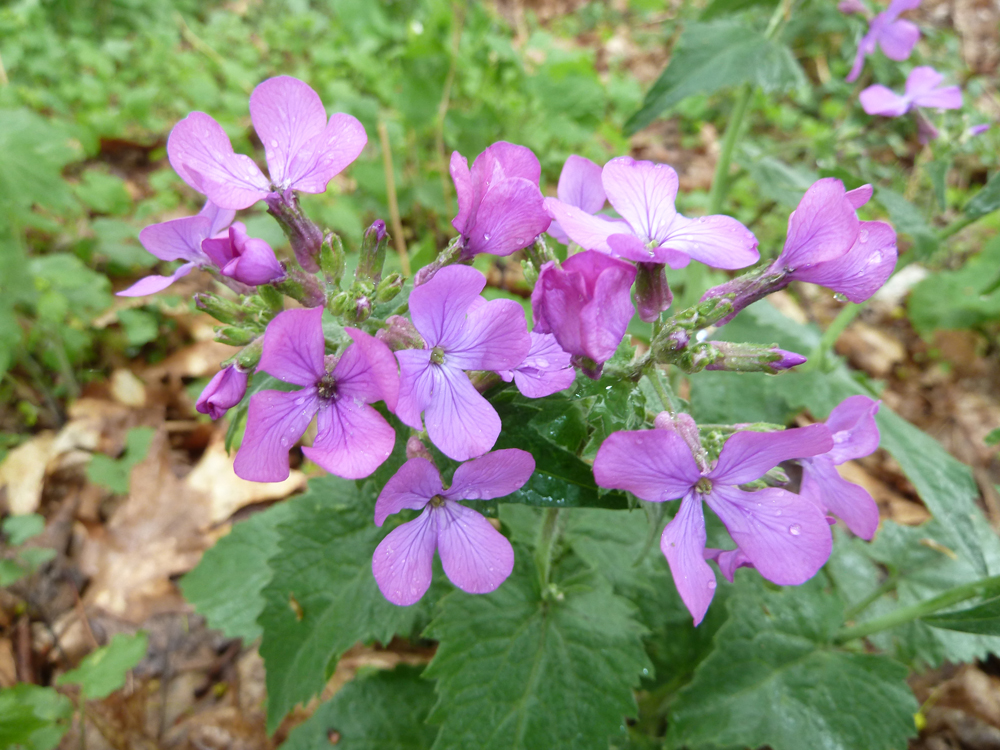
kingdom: Plantae
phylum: Tracheophyta
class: Magnoliopsida
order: Brassicales
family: Brassicaceae
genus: Lunaria
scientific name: Lunaria annua
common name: Honesty
